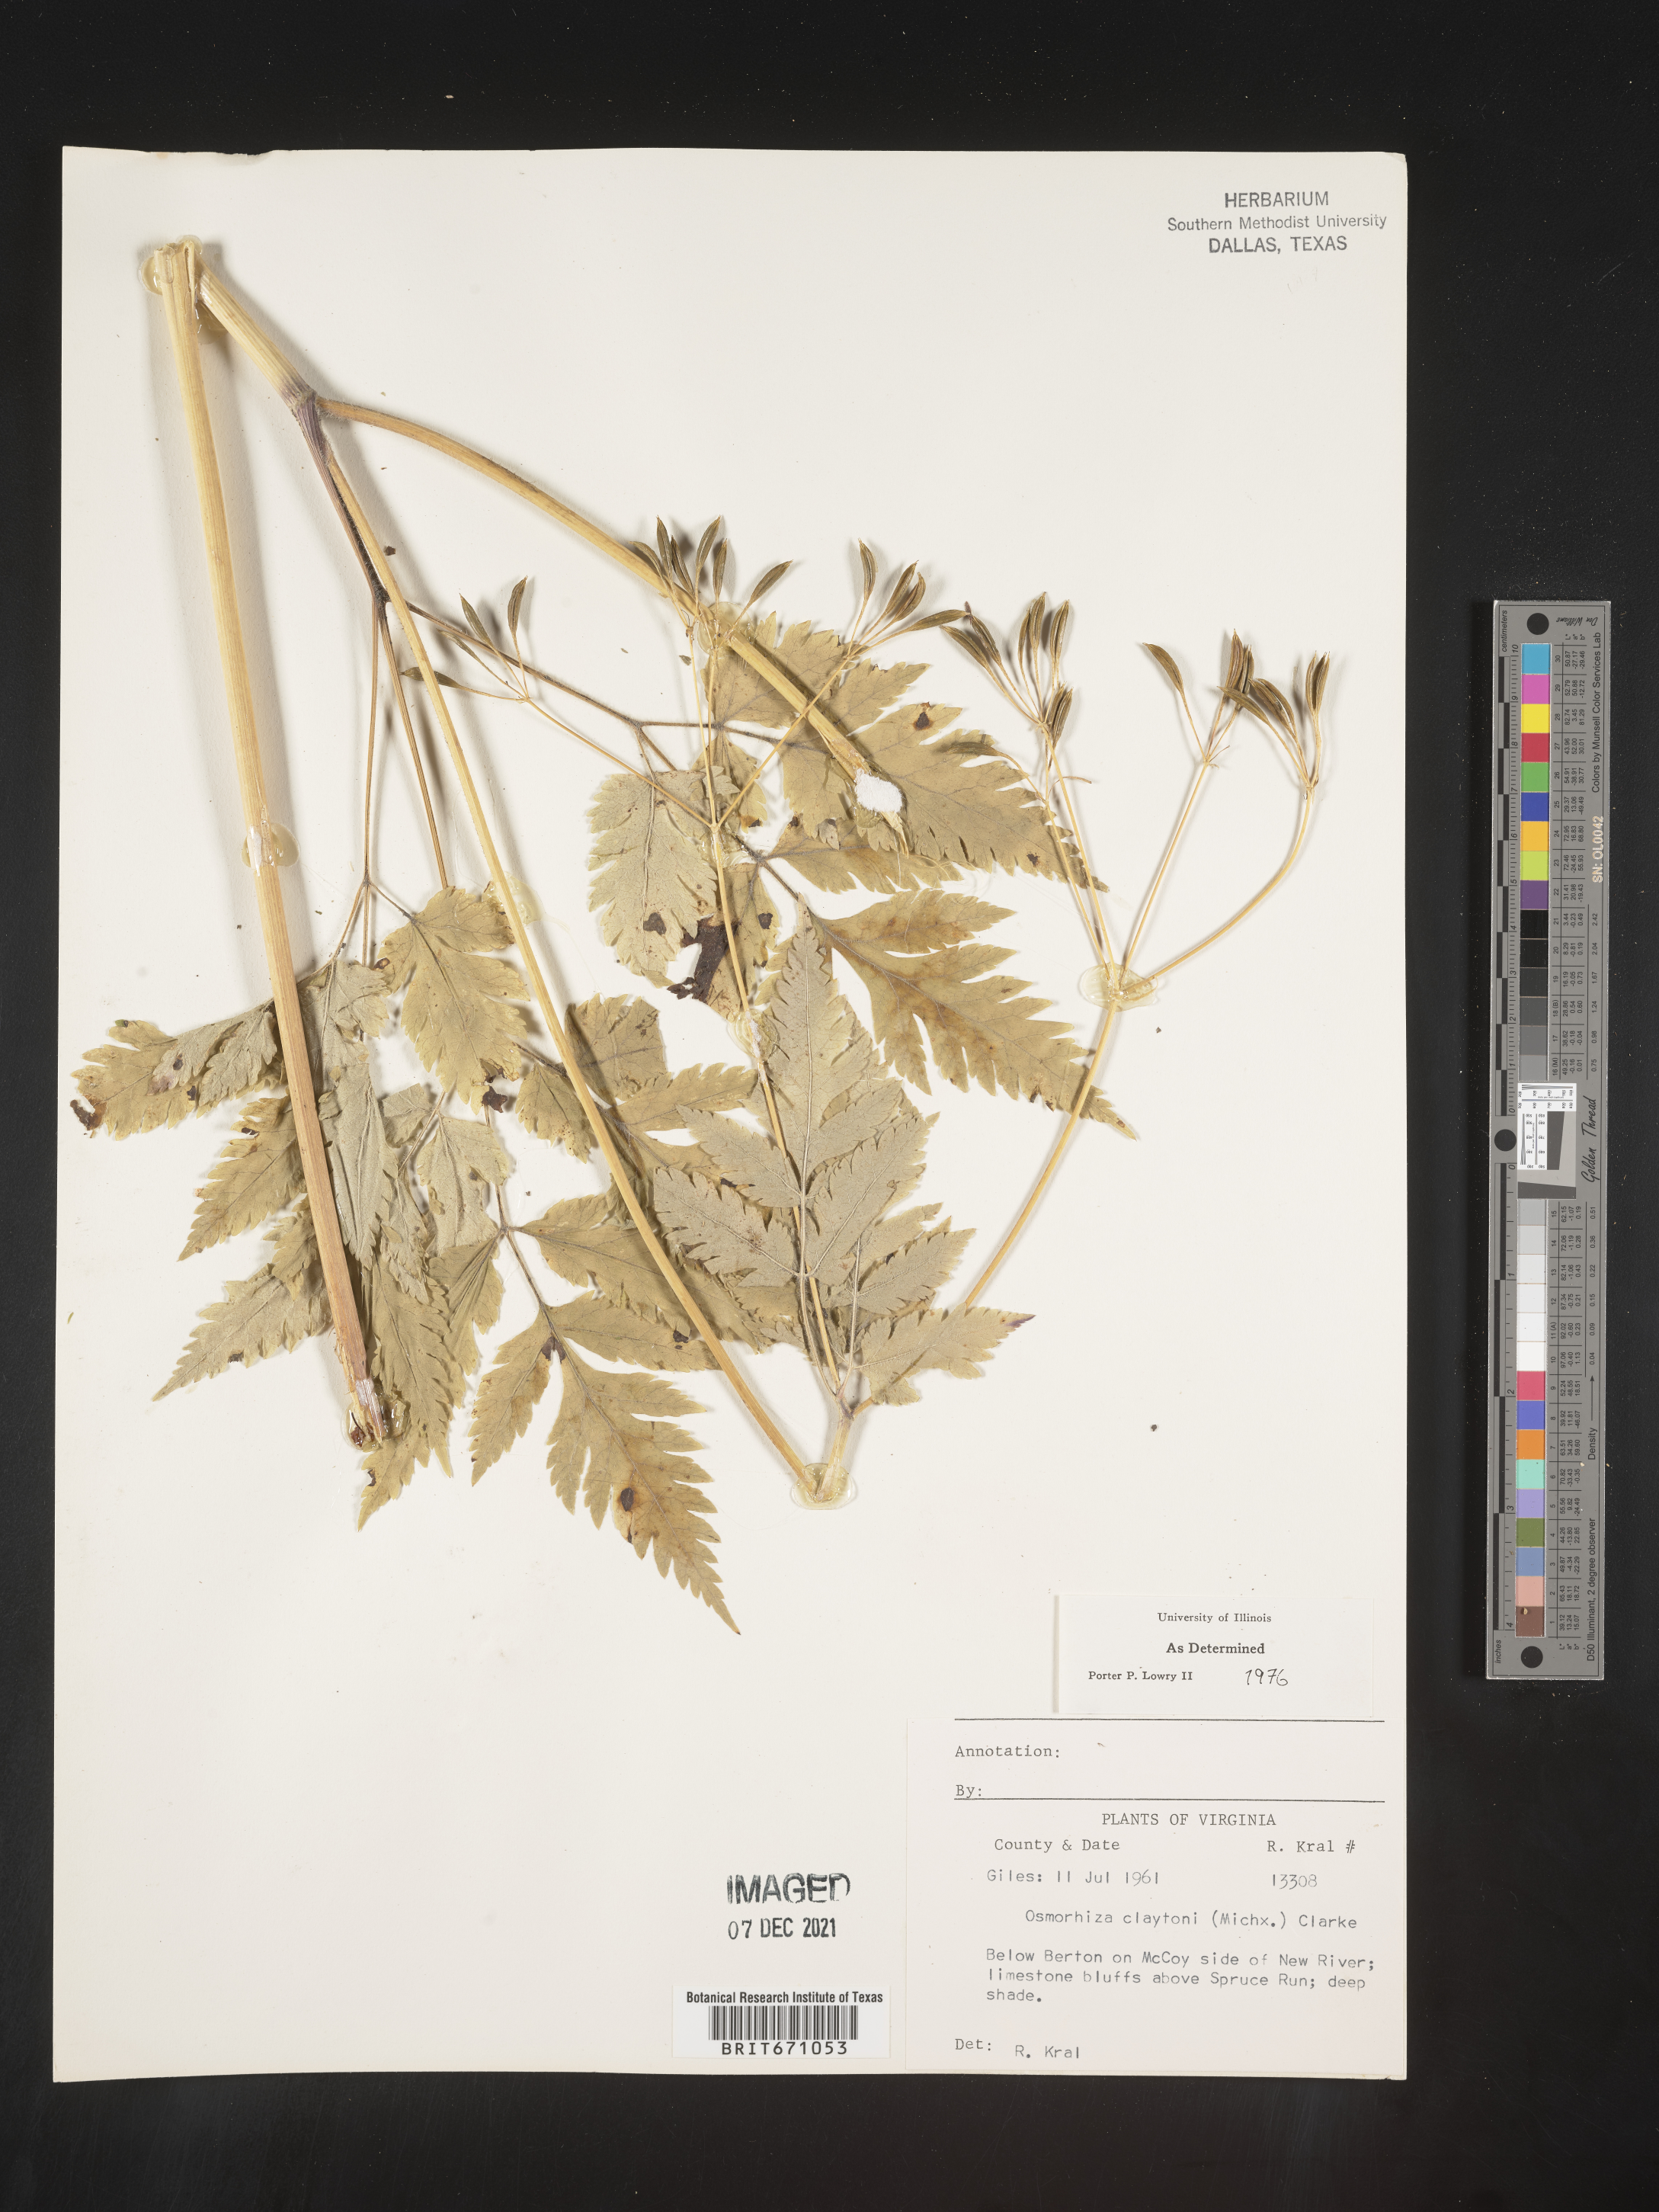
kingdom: Plantae
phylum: Tracheophyta
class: Magnoliopsida
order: Apiales
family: Apiaceae
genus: Osmorhiza
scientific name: Osmorhiza claytonii
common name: Hairy sweet cicely
